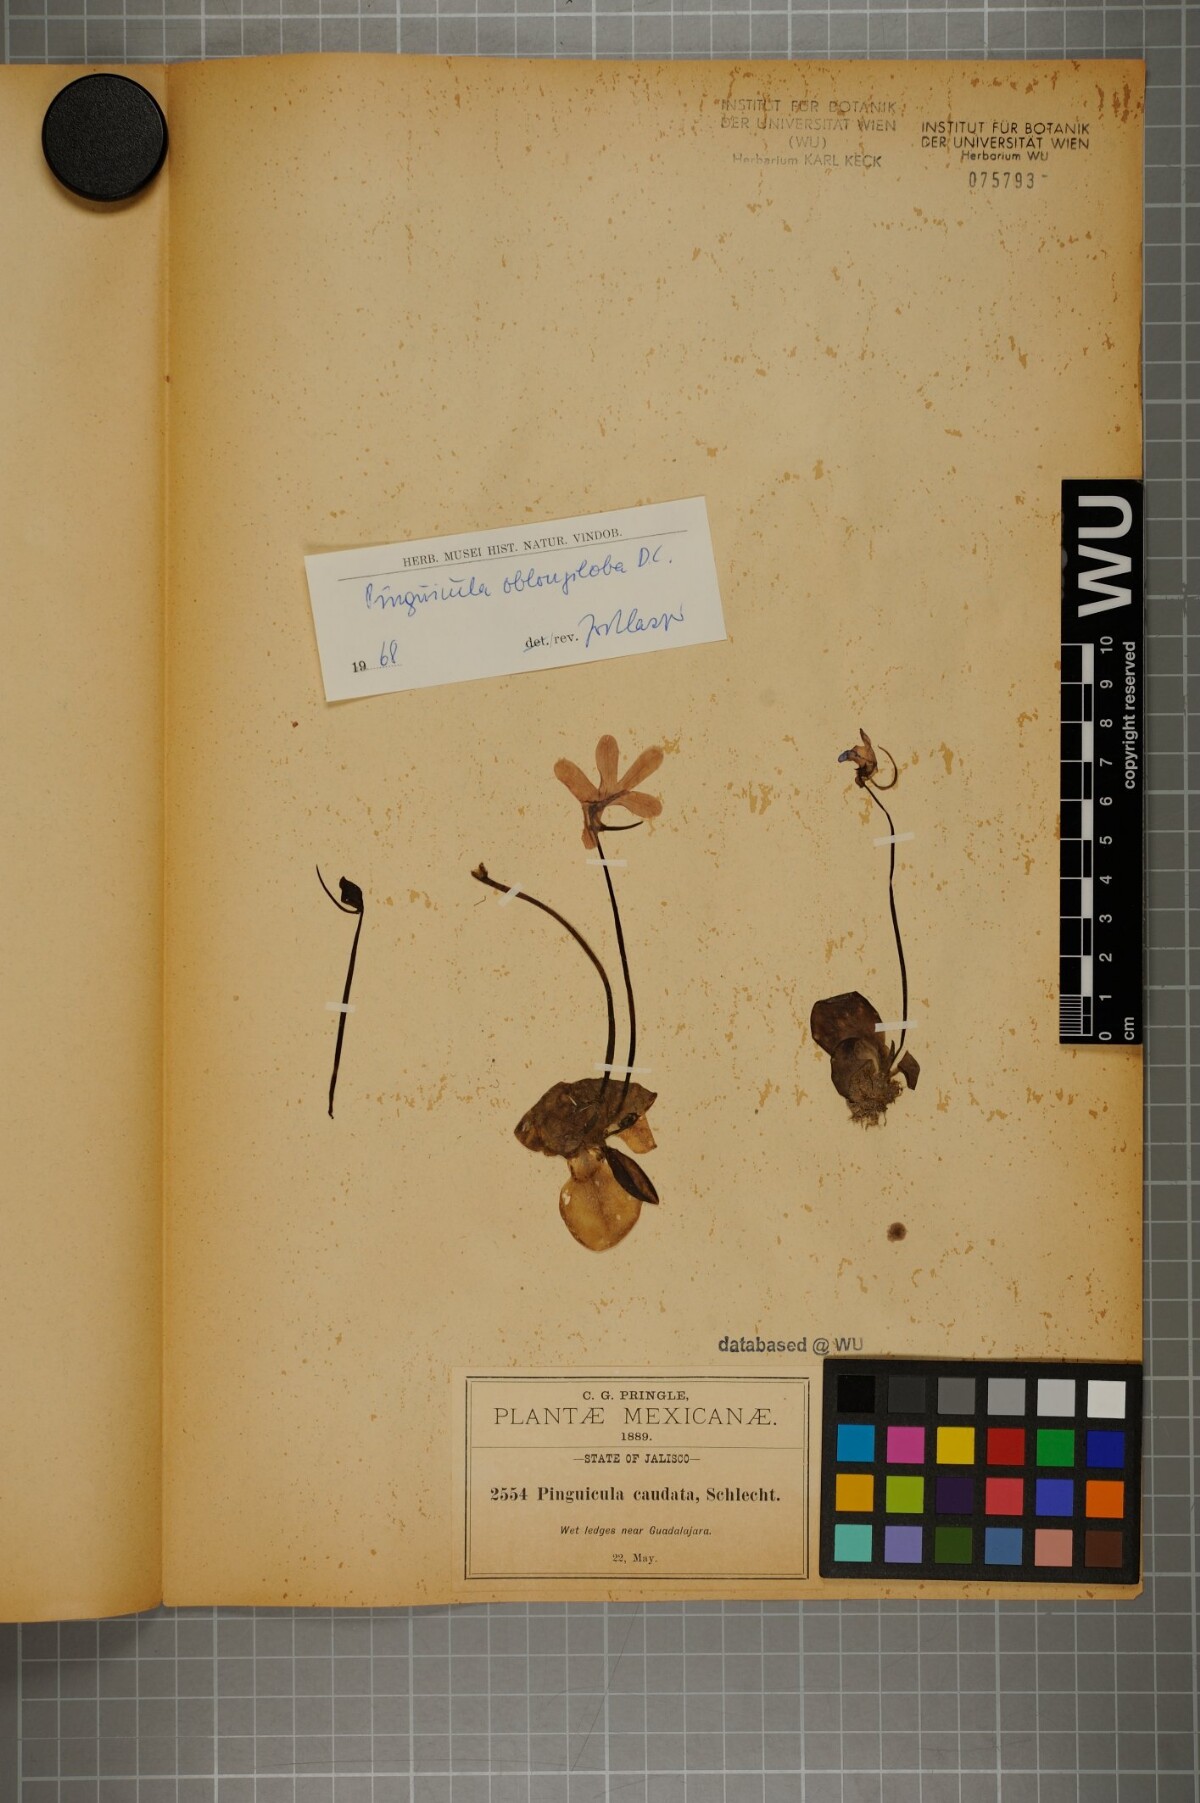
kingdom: Plantae
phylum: Tracheophyta
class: Magnoliopsida
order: Lamiales
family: Lentibulariaceae
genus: Pinguicula
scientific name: Pinguicula oblongiloba
